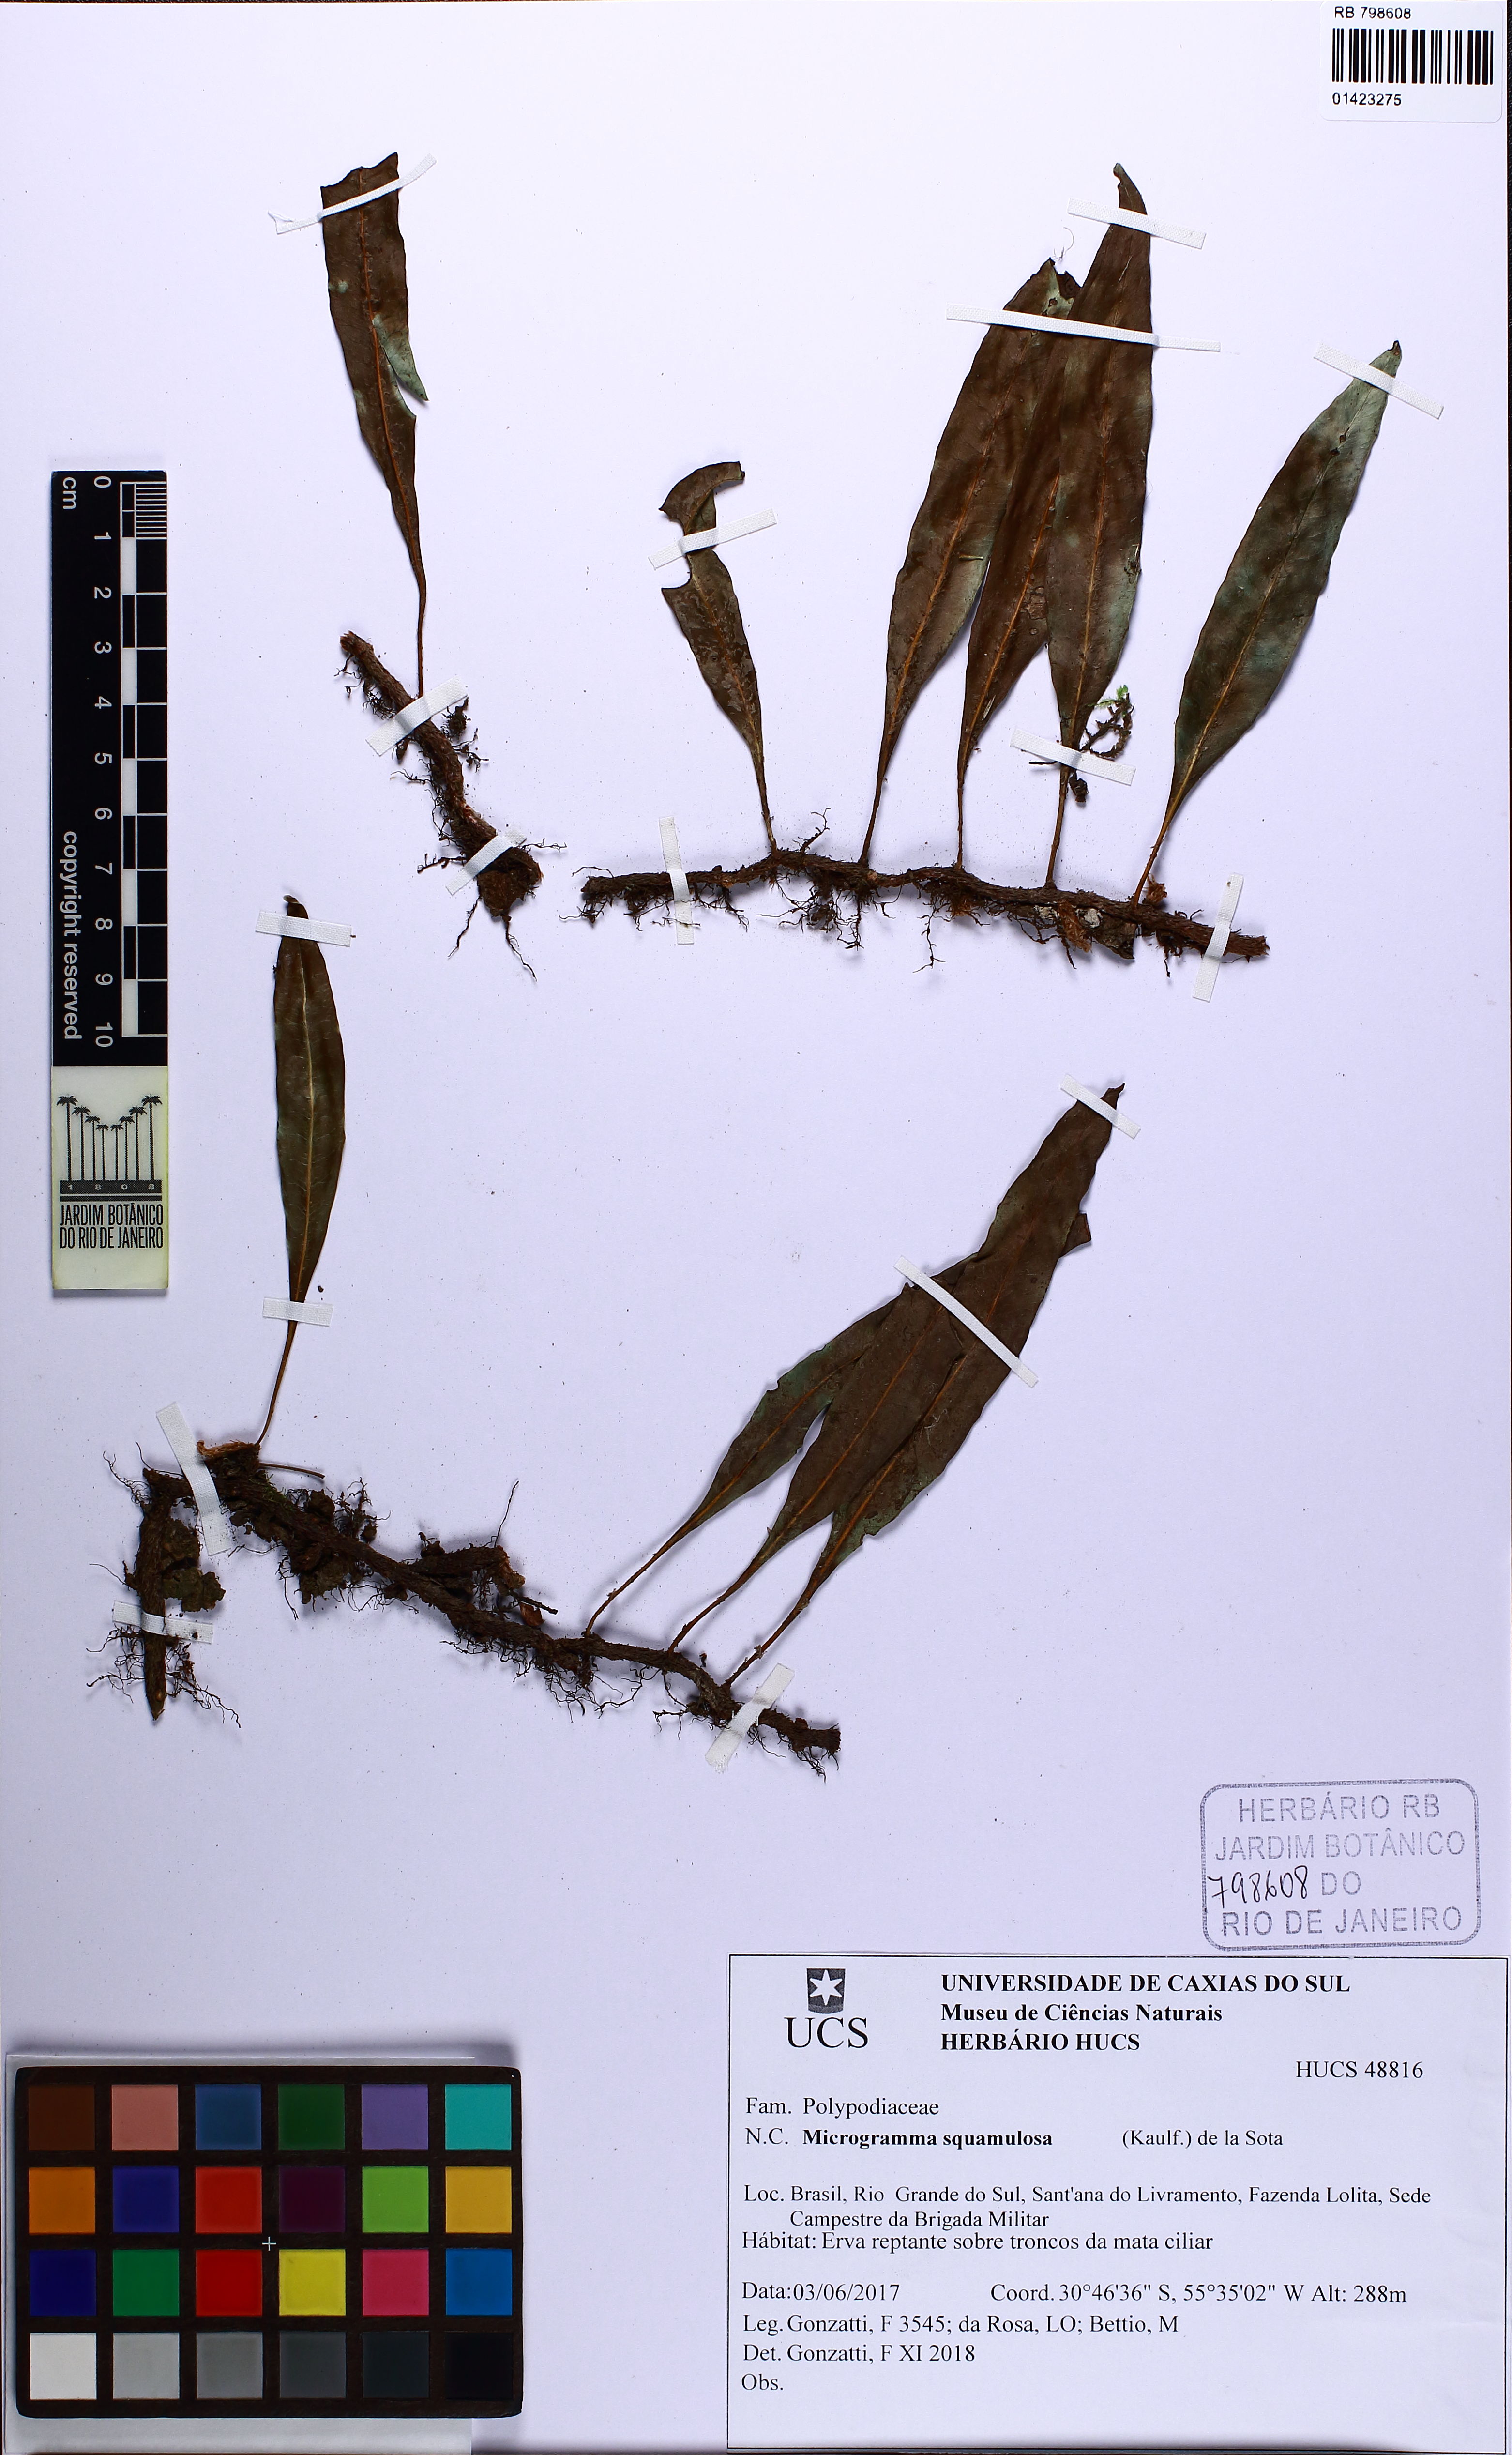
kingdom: Plantae
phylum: Tracheophyta
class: Polypodiopsida
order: Polypodiales
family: Polypodiaceae
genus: Microgramma
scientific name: Microgramma squamulosa
